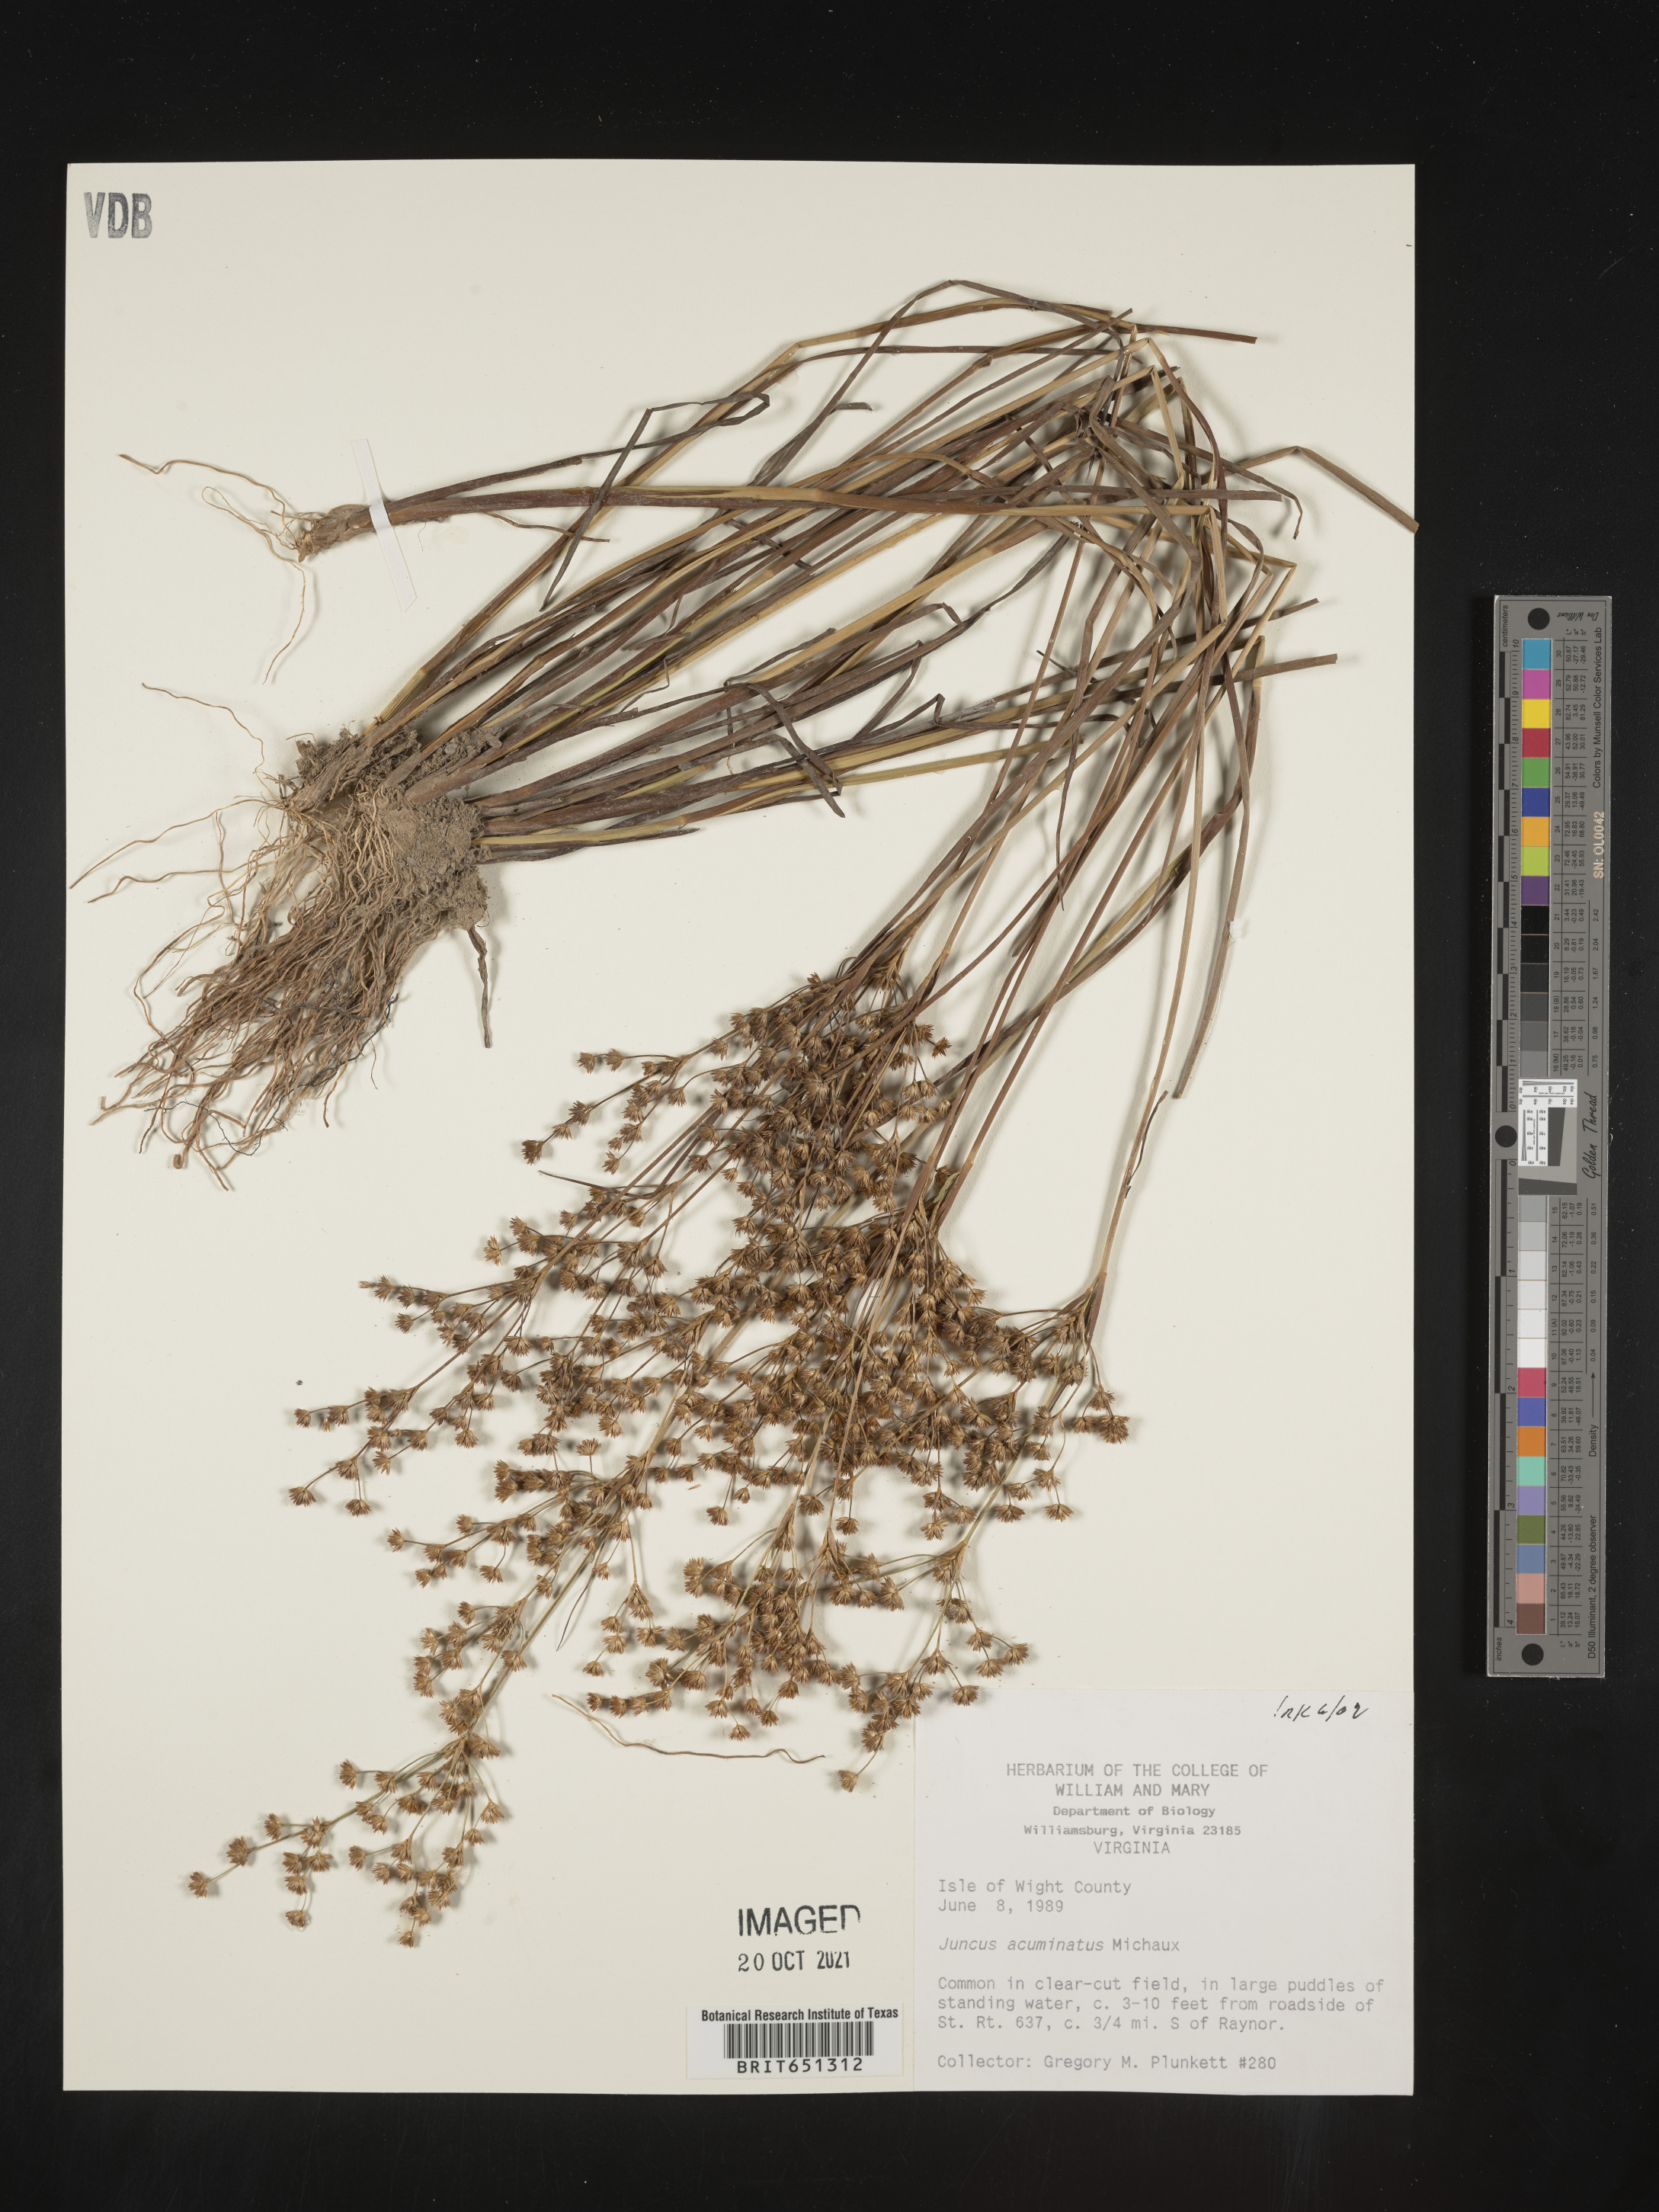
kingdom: Plantae
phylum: Tracheophyta
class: Liliopsida
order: Poales
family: Juncaceae
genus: Juncus
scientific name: Juncus acuminatus
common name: Knotty-leaved rush
